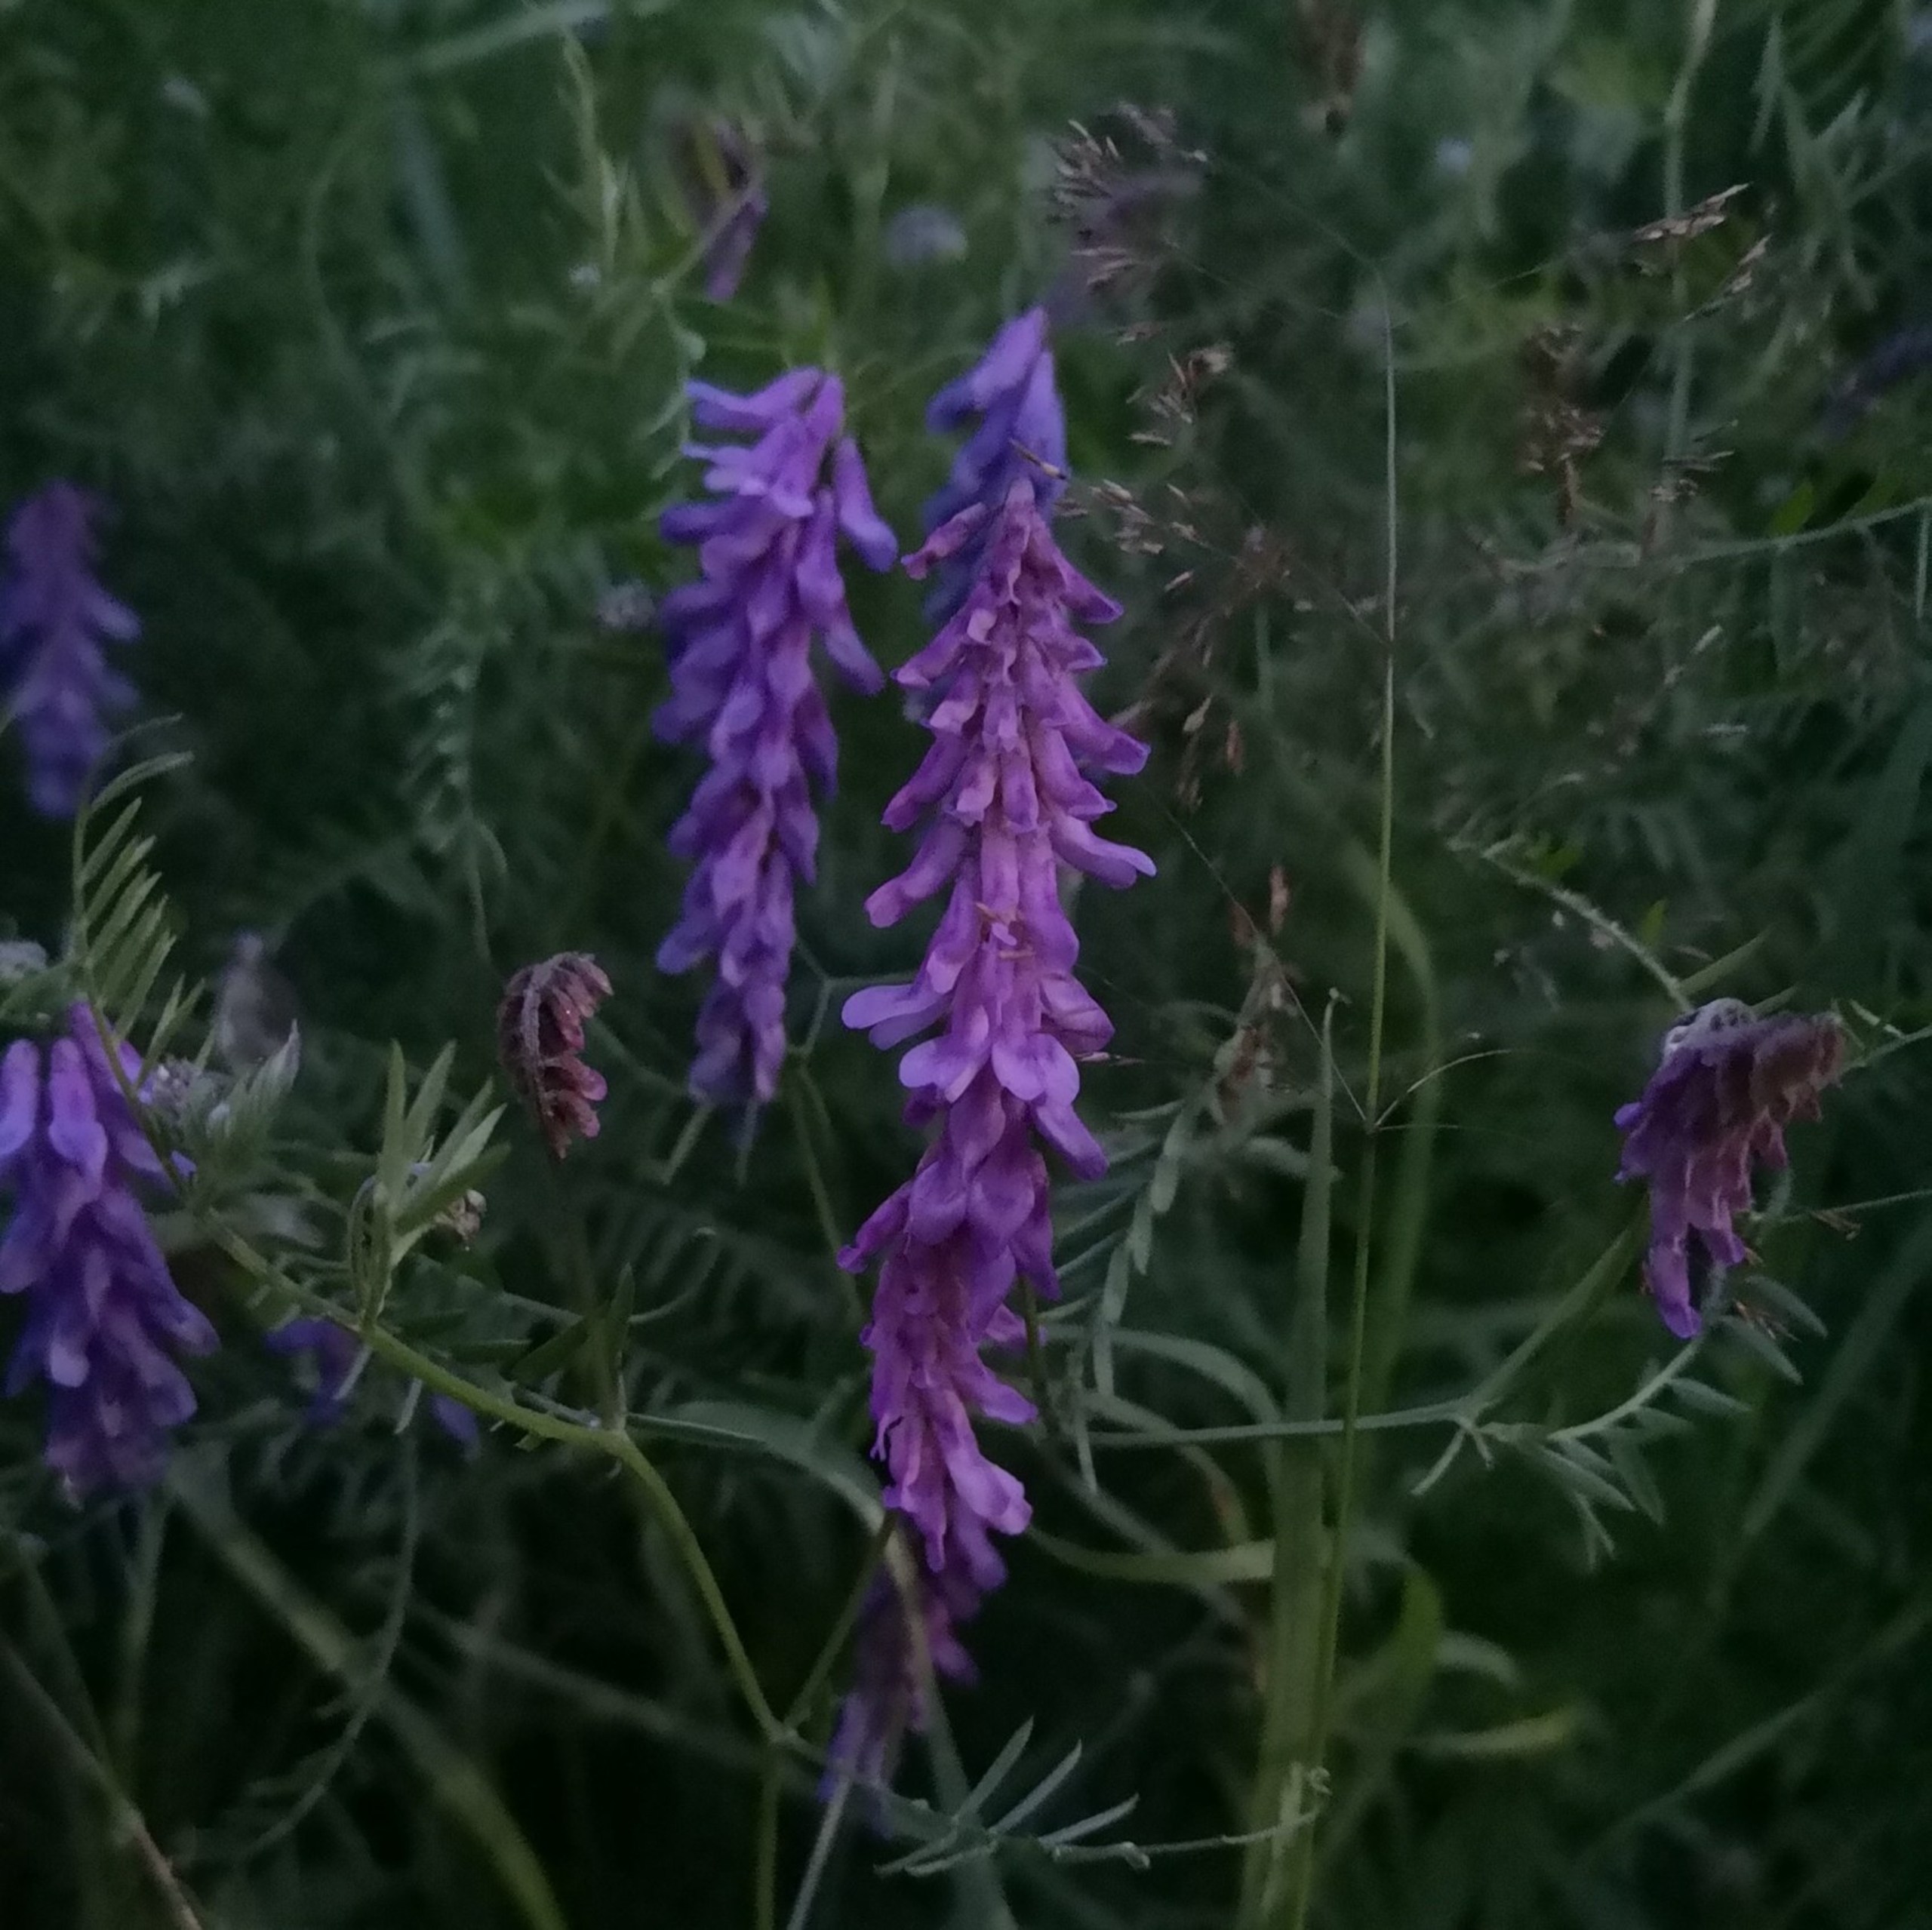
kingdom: Plantae
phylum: Tracheophyta
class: Magnoliopsida
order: Fabales
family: Fabaceae
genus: Vicia
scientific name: Vicia cracca
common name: Muse-vikke
